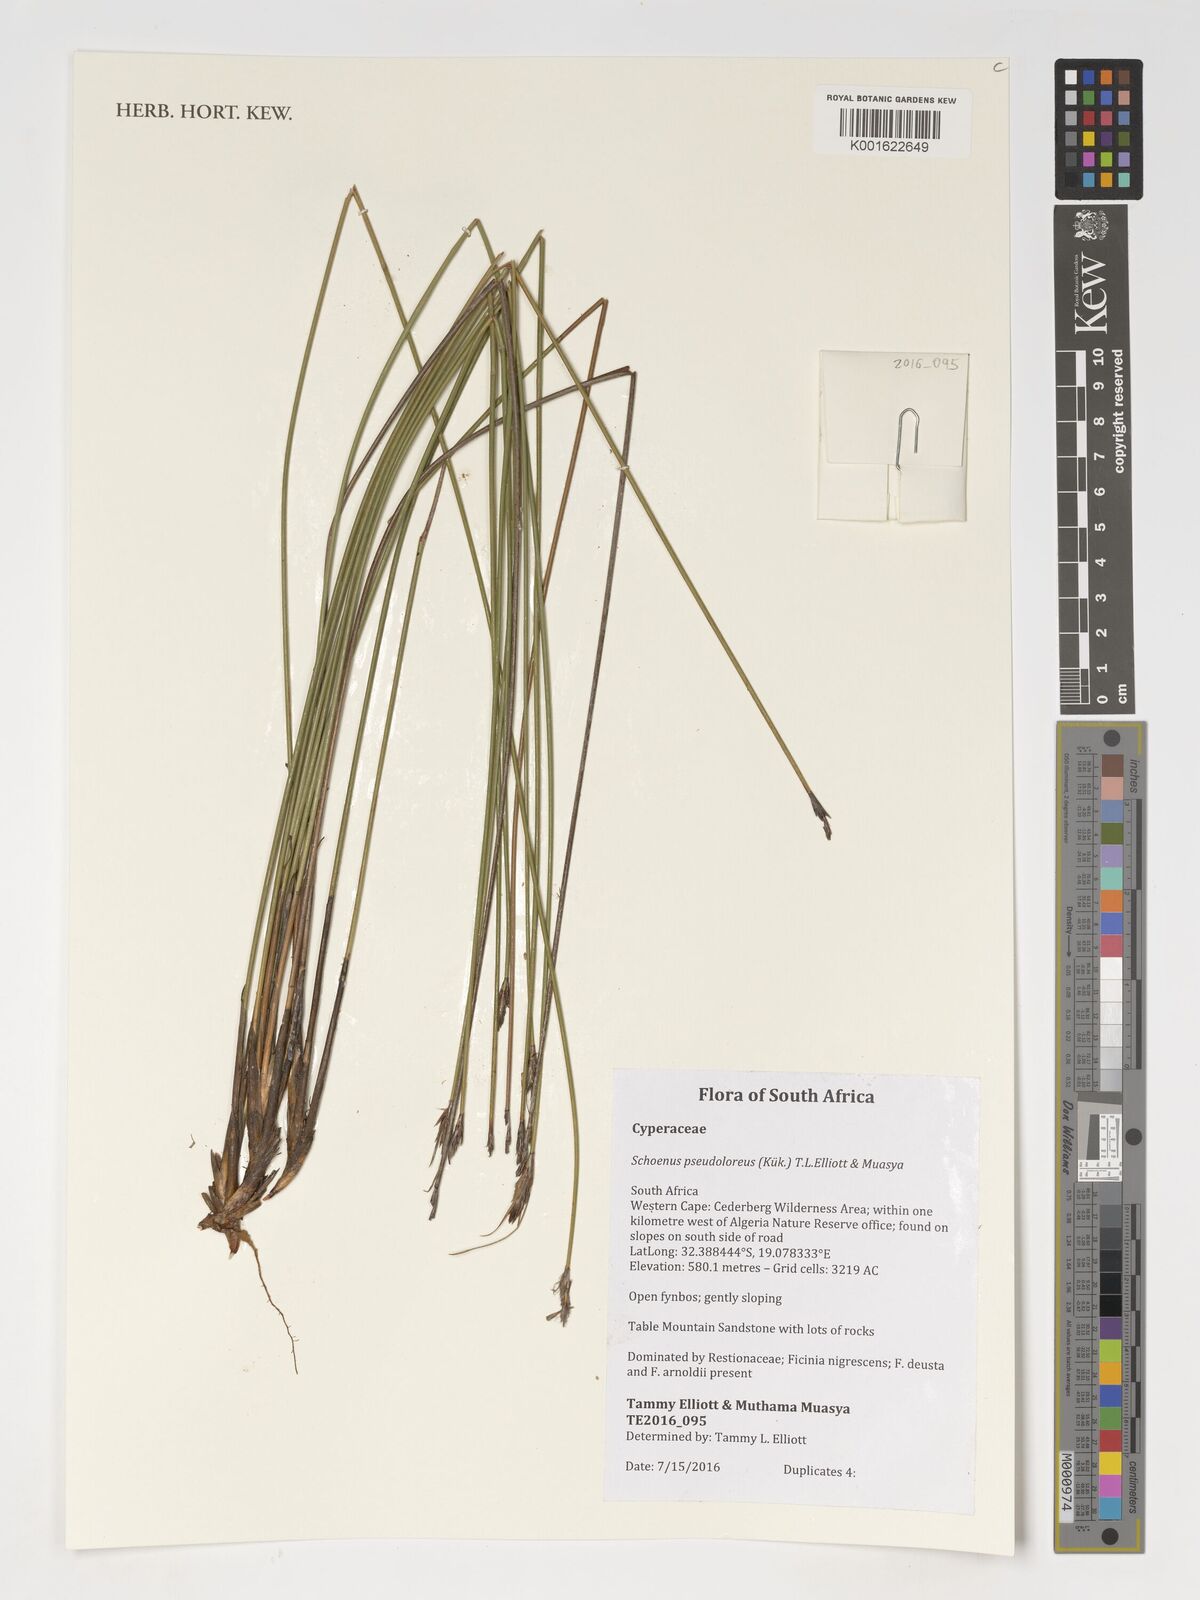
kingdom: Plantae
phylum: Tracheophyta
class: Liliopsida
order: Poales
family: Cyperaceae
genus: Schoenus
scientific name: Schoenus pseudoloreus
